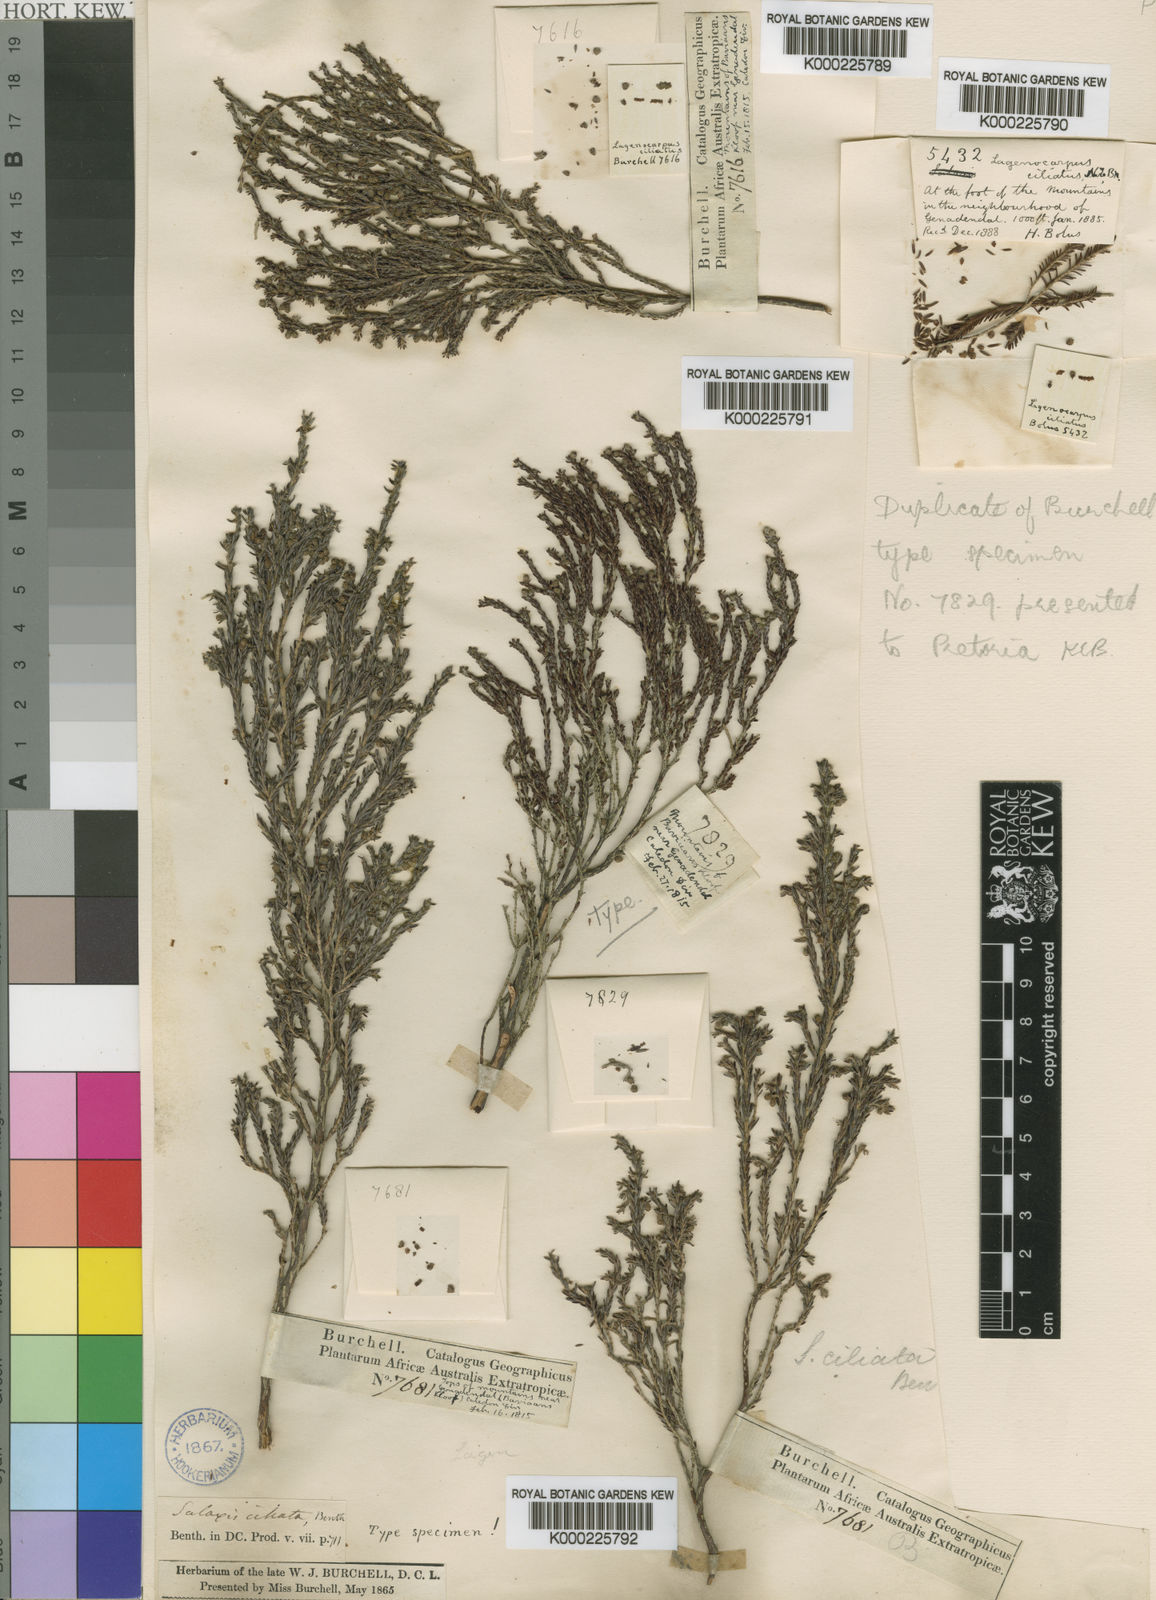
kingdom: Plantae
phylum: Tracheophyta
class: Magnoliopsida
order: Ericales
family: Ericaceae
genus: Erica
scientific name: Erica serrata
